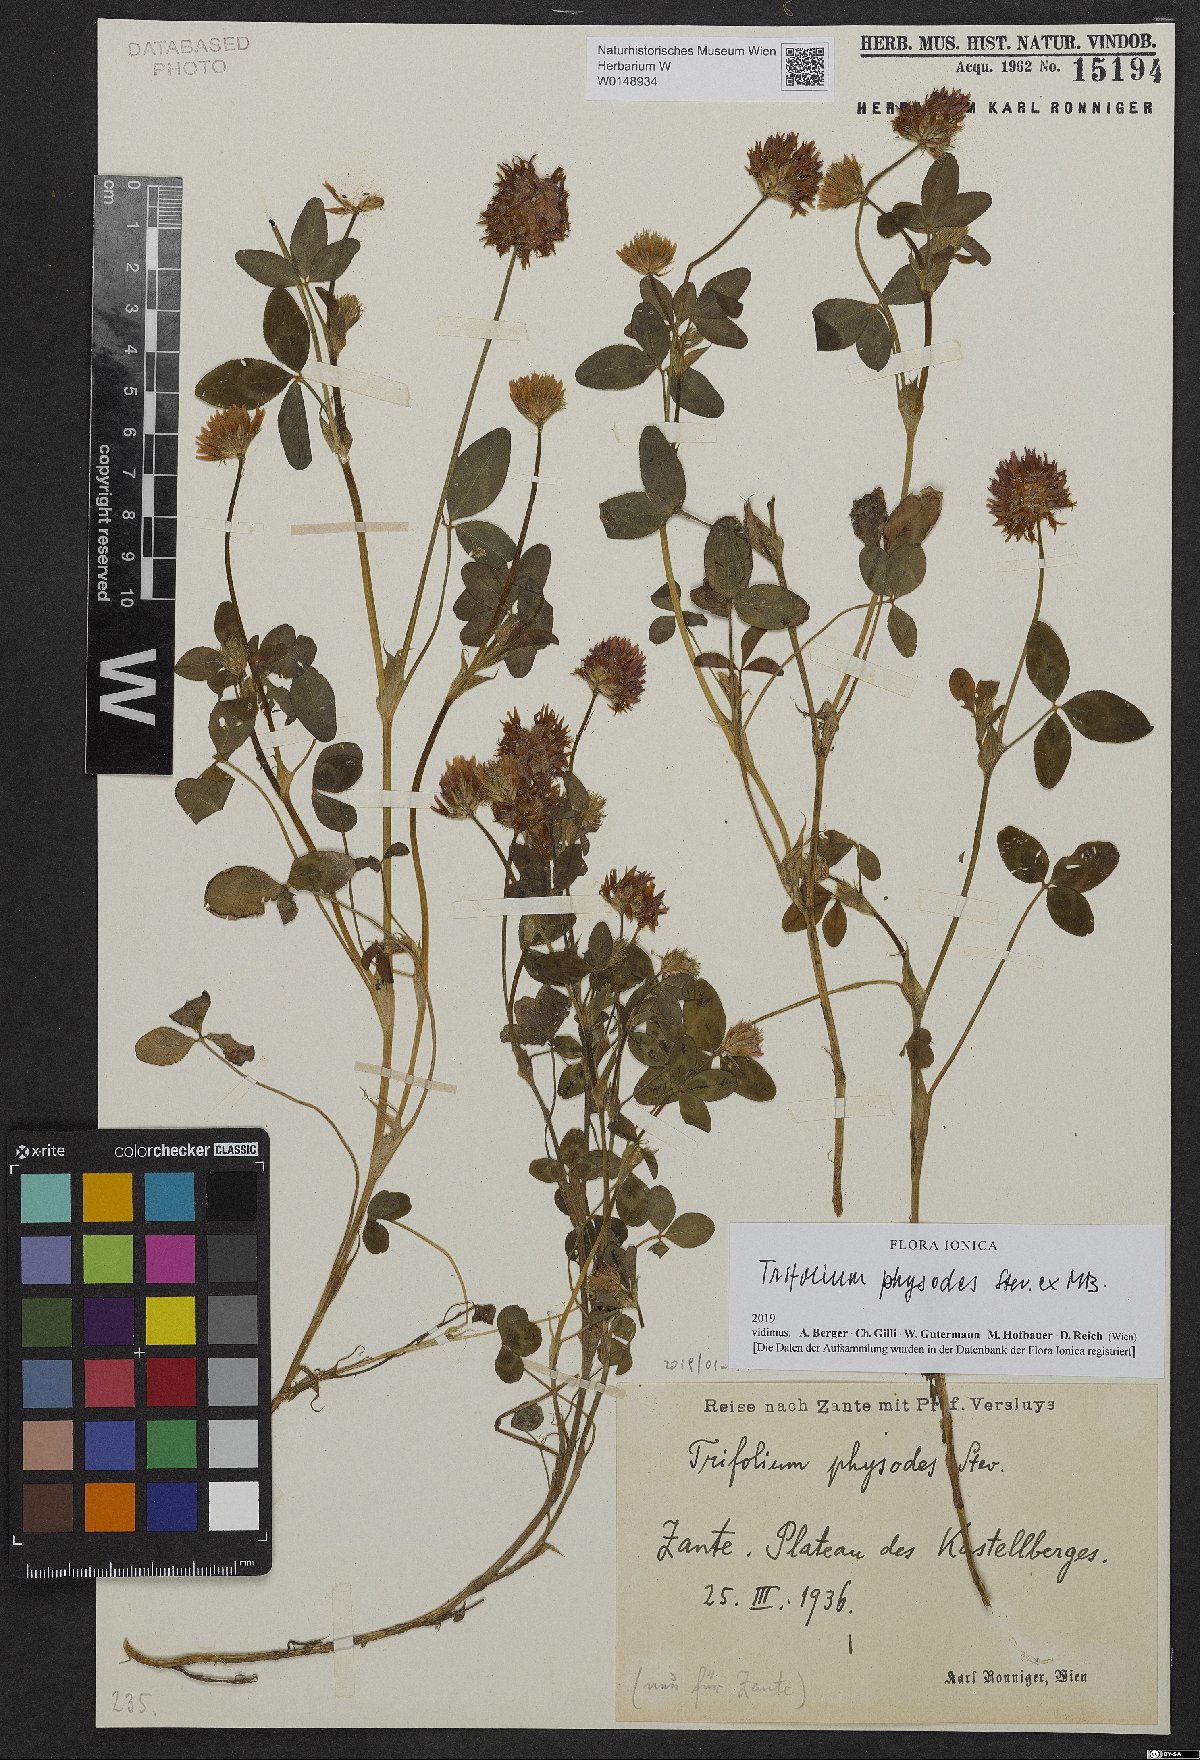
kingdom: Plantae
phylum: Tracheophyta
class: Magnoliopsida
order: Fabales
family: Fabaceae
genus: Trifolium
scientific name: Trifolium physodes
